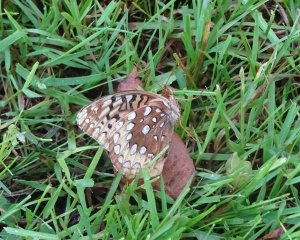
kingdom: Animalia
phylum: Arthropoda
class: Insecta
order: Lepidoptera
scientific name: Lepidoptera
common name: Butterflies
